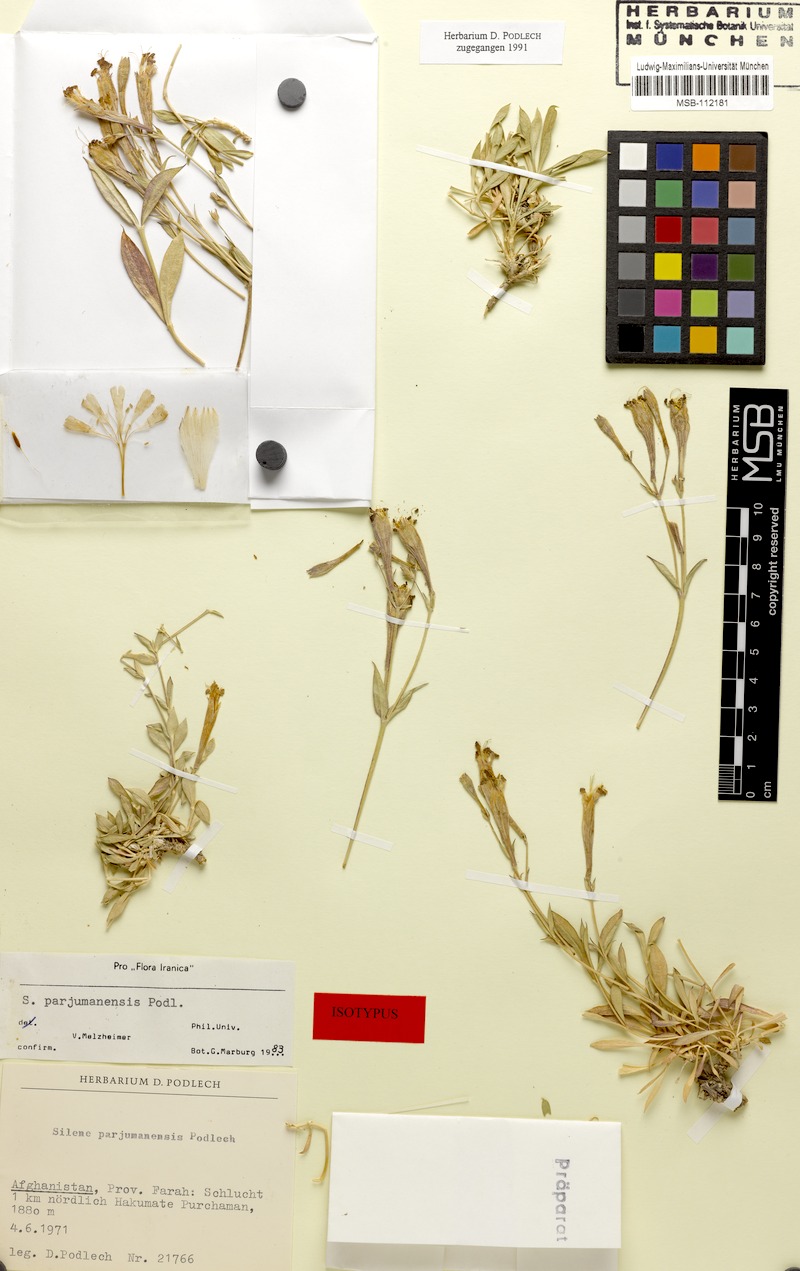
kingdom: Plantae
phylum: Tracheophyta
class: Magnoliopsida
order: Caryophyllales
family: Caryophyllaceae
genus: Silene
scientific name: Silene parjumanensis
